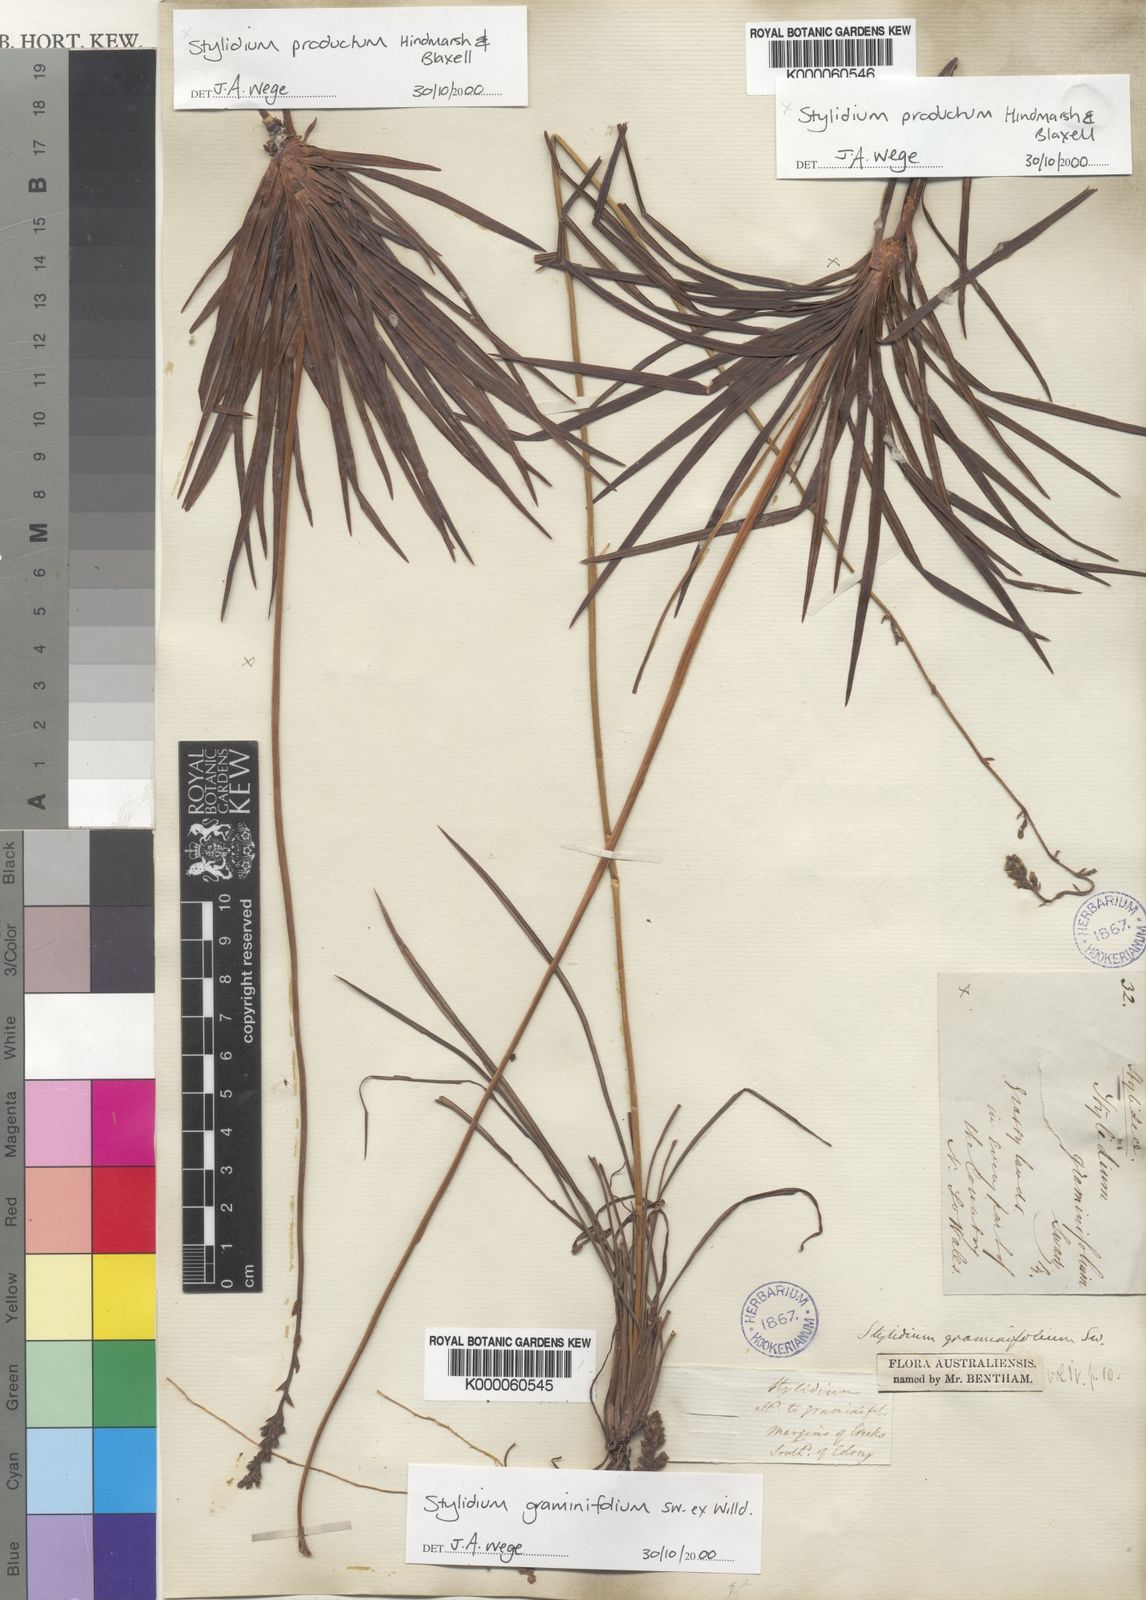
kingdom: Plantae
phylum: Tracheophyta
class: Magnoliopsida
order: Asterales
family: Stylidiaceae
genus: Stylidium
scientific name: Stylidium graminifolium
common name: Grass triggerplant
